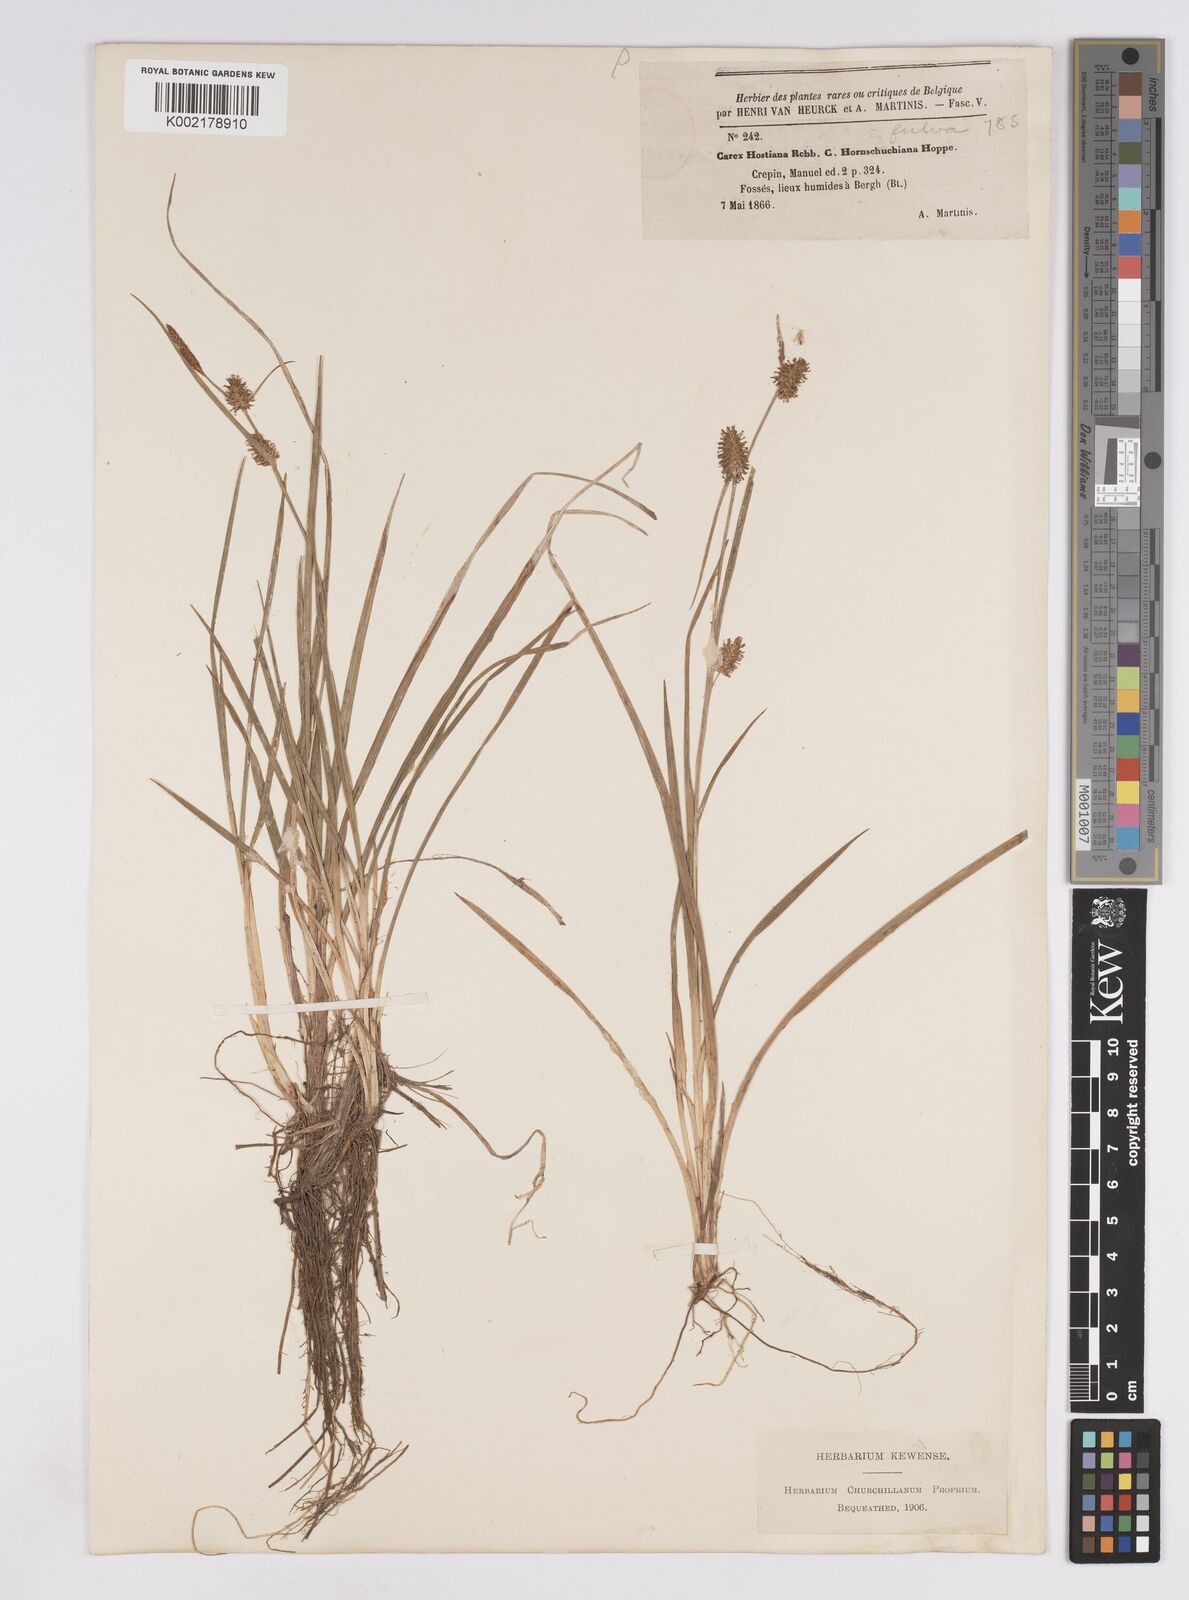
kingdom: Plantae
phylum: Tracheophyta
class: Liliopsida
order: Poales
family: Cyperaceae
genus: Carex
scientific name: Carex lepidocarpa
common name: Long-stalked yellow-sedge
